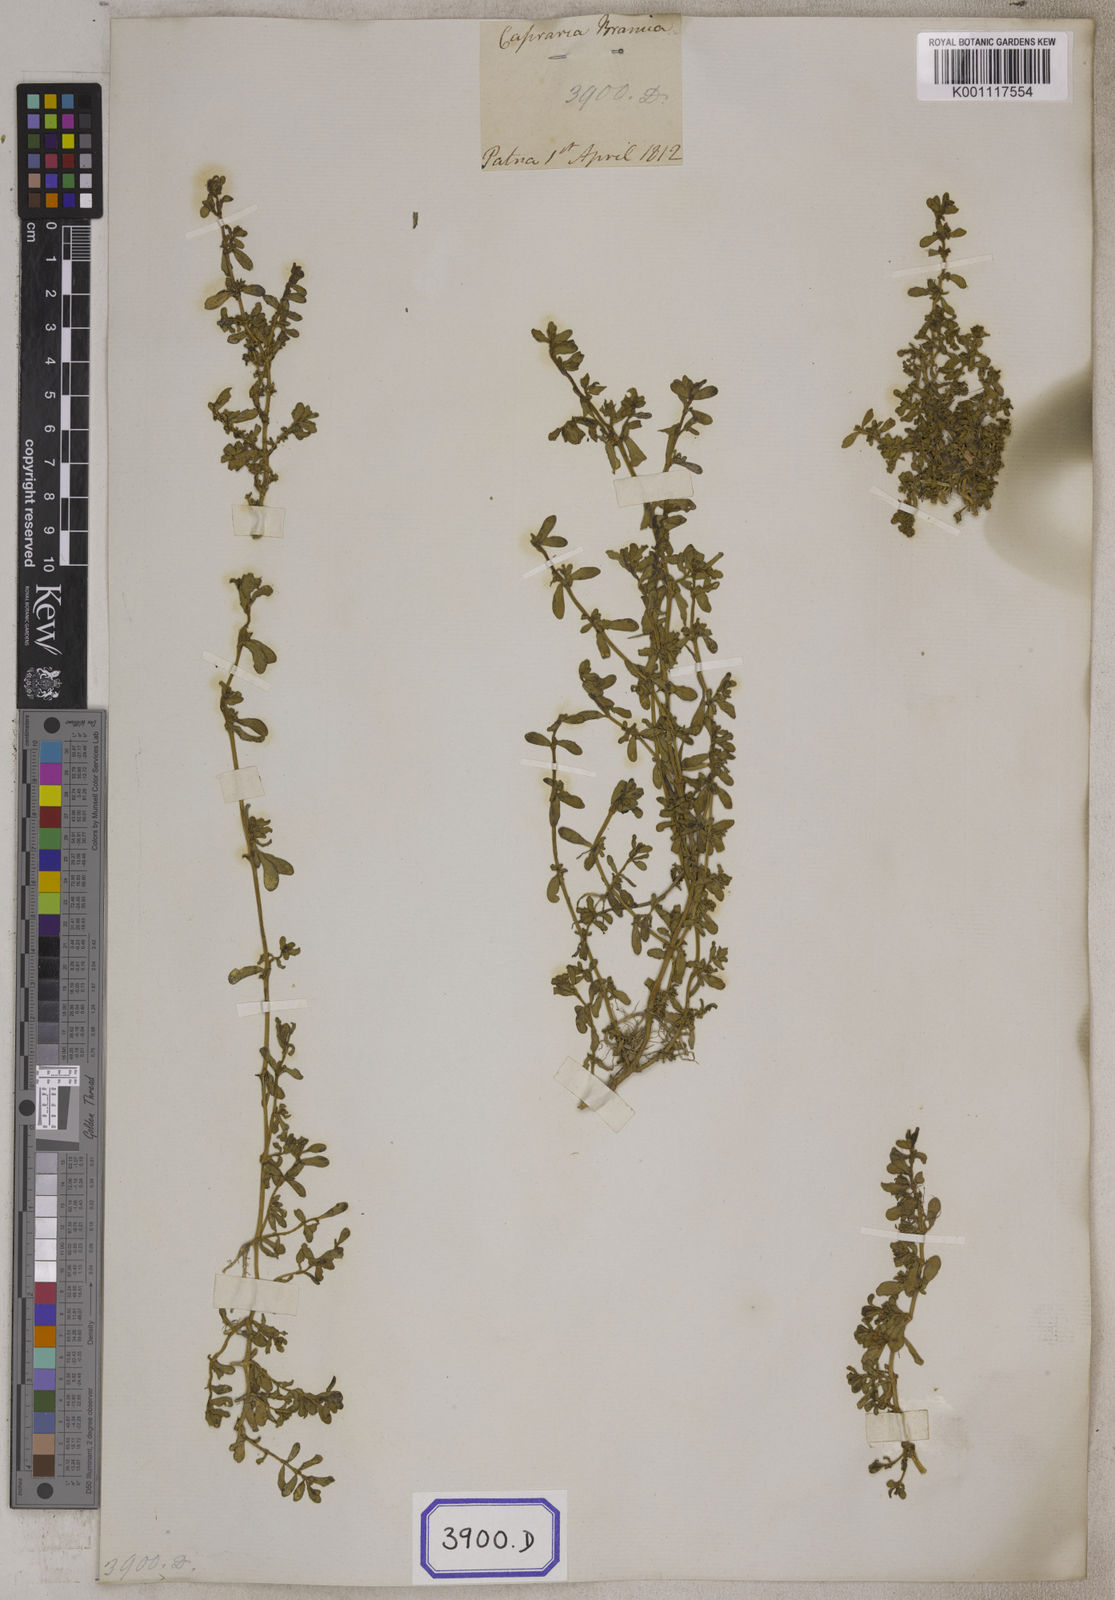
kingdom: Plantae
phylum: Tracheophyta
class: Magnoliopsida
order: Lamiales
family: Plantaginaceae
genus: Bacopa
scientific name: Bacopa monnieri
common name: Indian-pennywort
